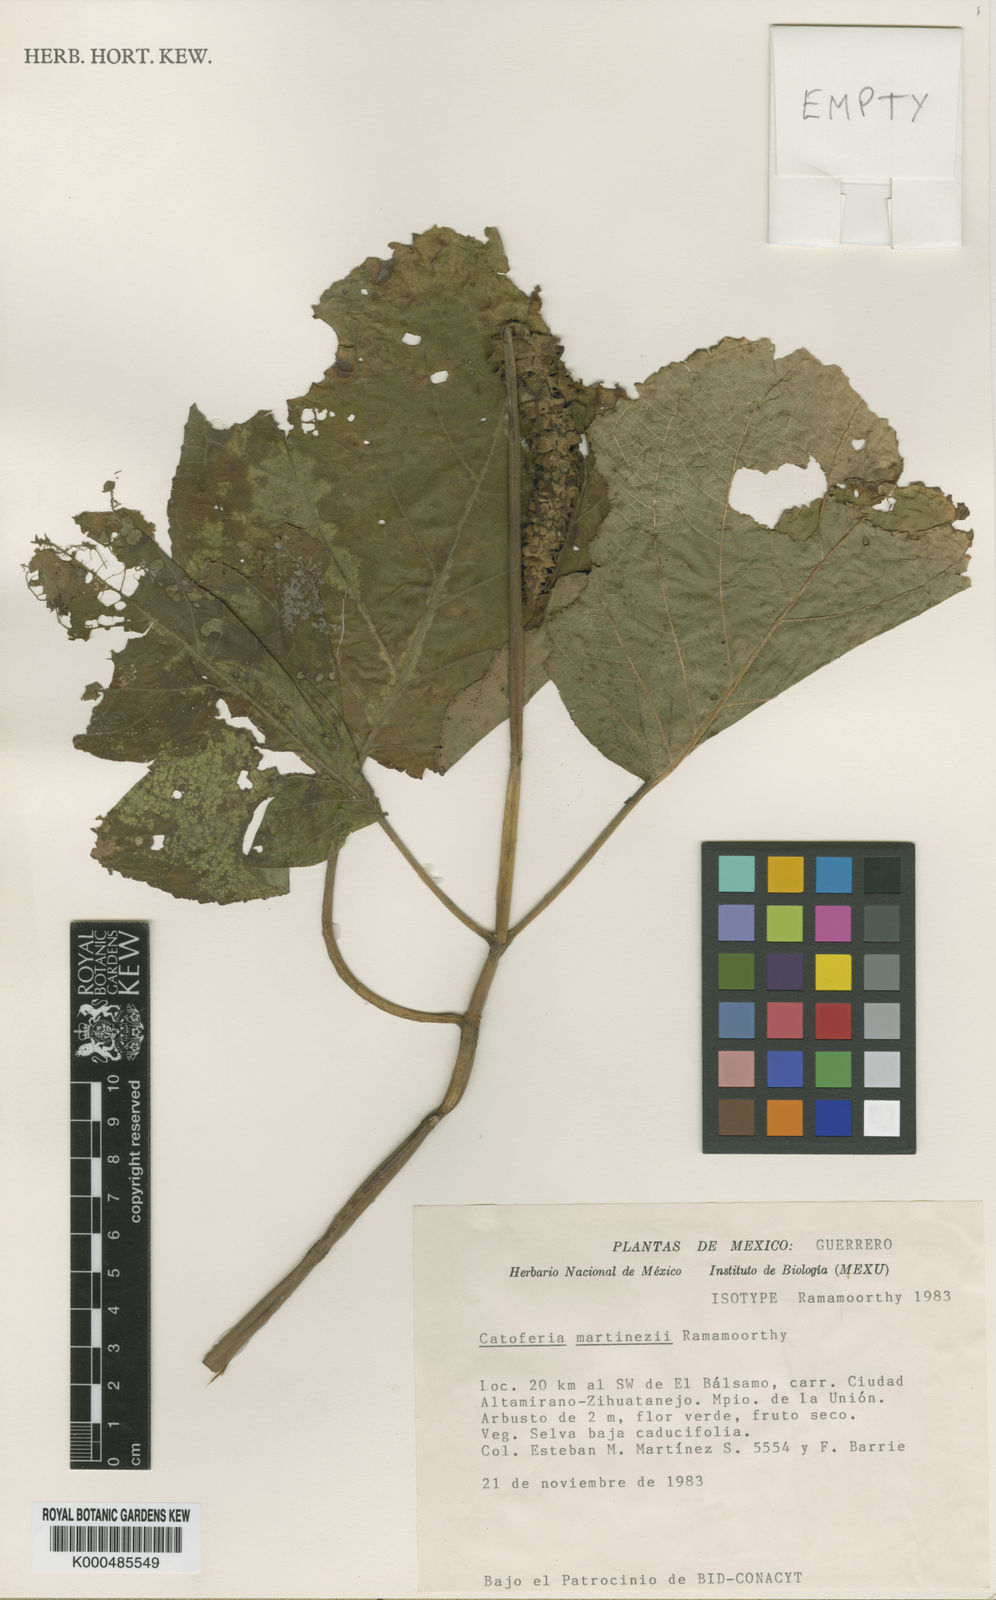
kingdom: Plantae
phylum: Tracheophyta
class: Magnoliopsida
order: Lamiales
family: Lamiaceae
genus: Catoferia
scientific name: Catoferia martinezii
